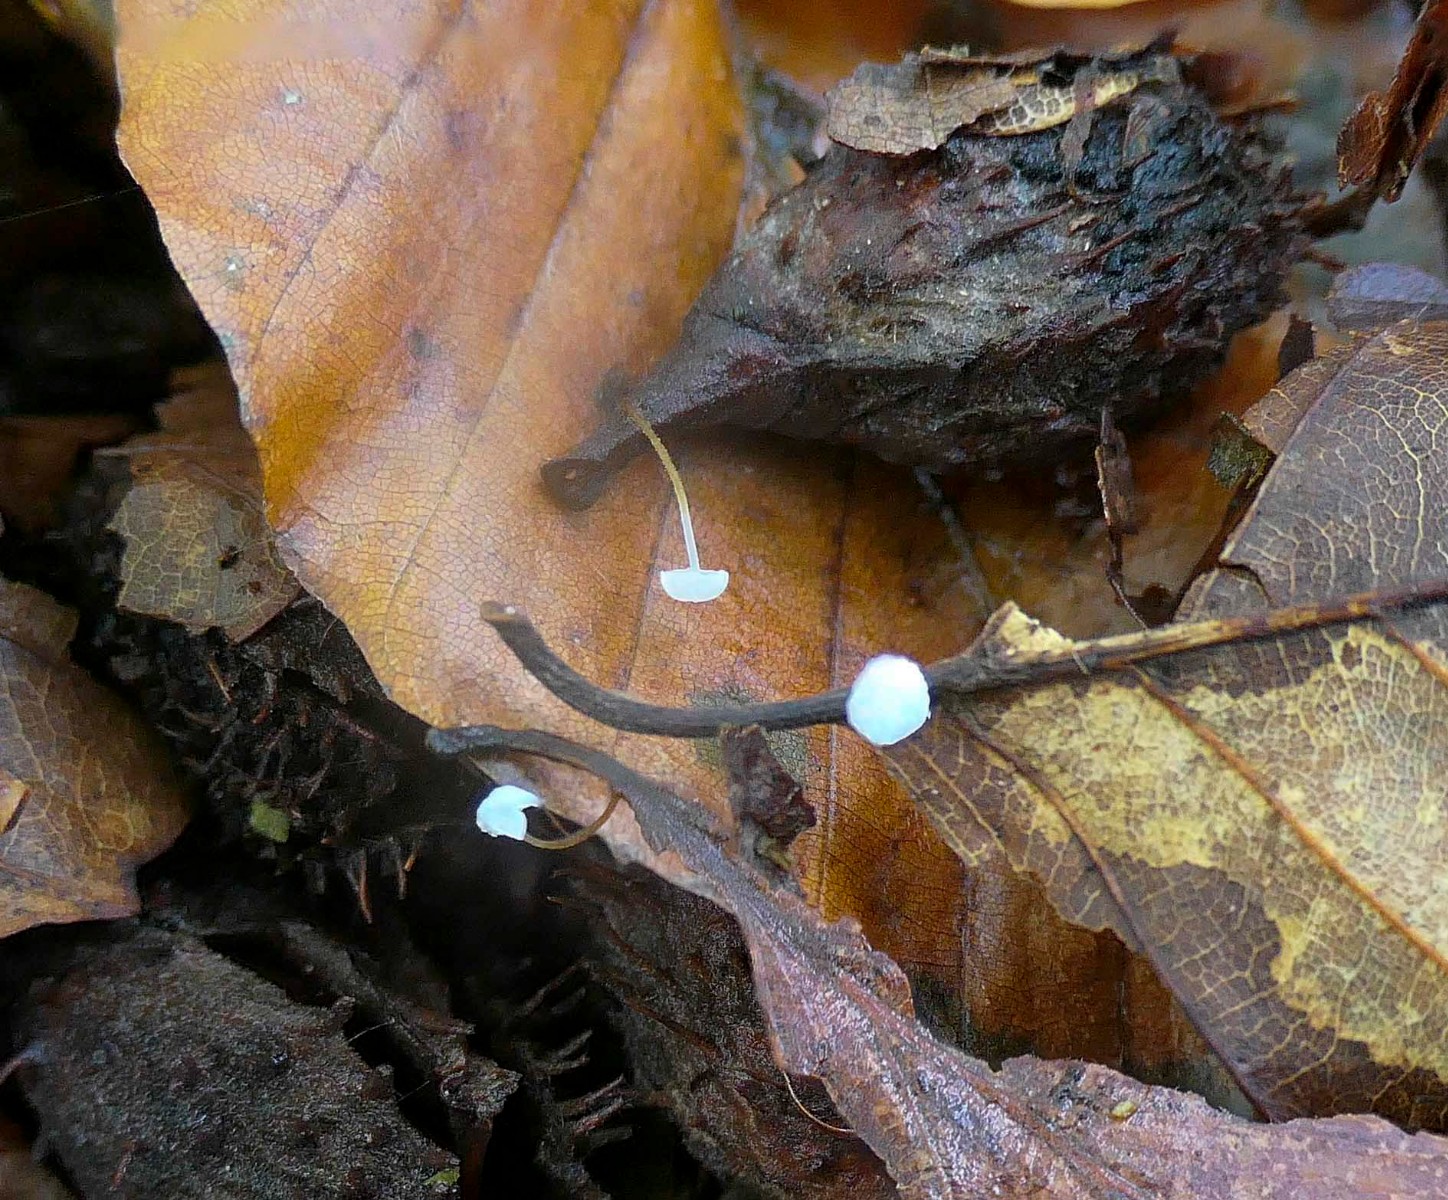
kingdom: Fungi
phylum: Basidiomycota
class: Agaricomycetes
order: Agaricales
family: Physalacriaceae
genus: Rhizomarasmius
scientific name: Rhizomarasmius setosus
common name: bøgeblads-bruskhat
